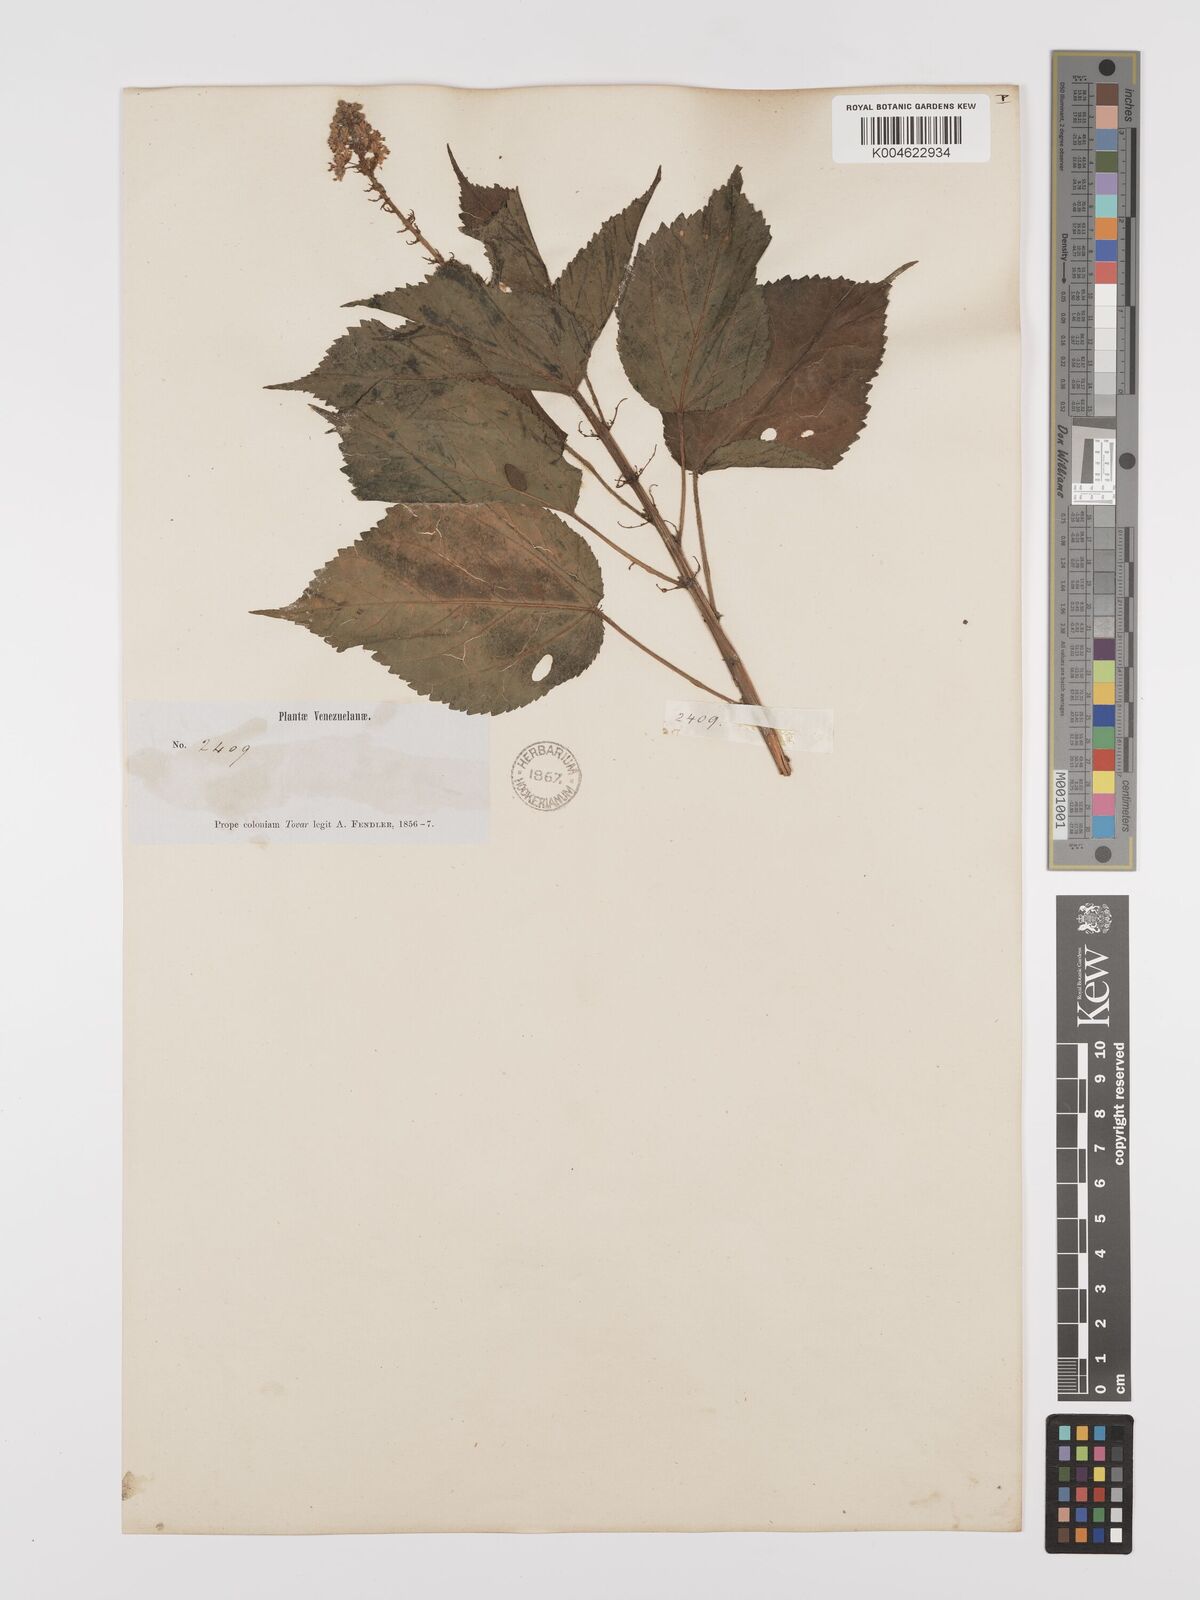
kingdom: Plantae
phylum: Tracheophyta
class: Magnoliopsida
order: Malpighiales
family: Euphorbiaceae
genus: Croton
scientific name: Croton
